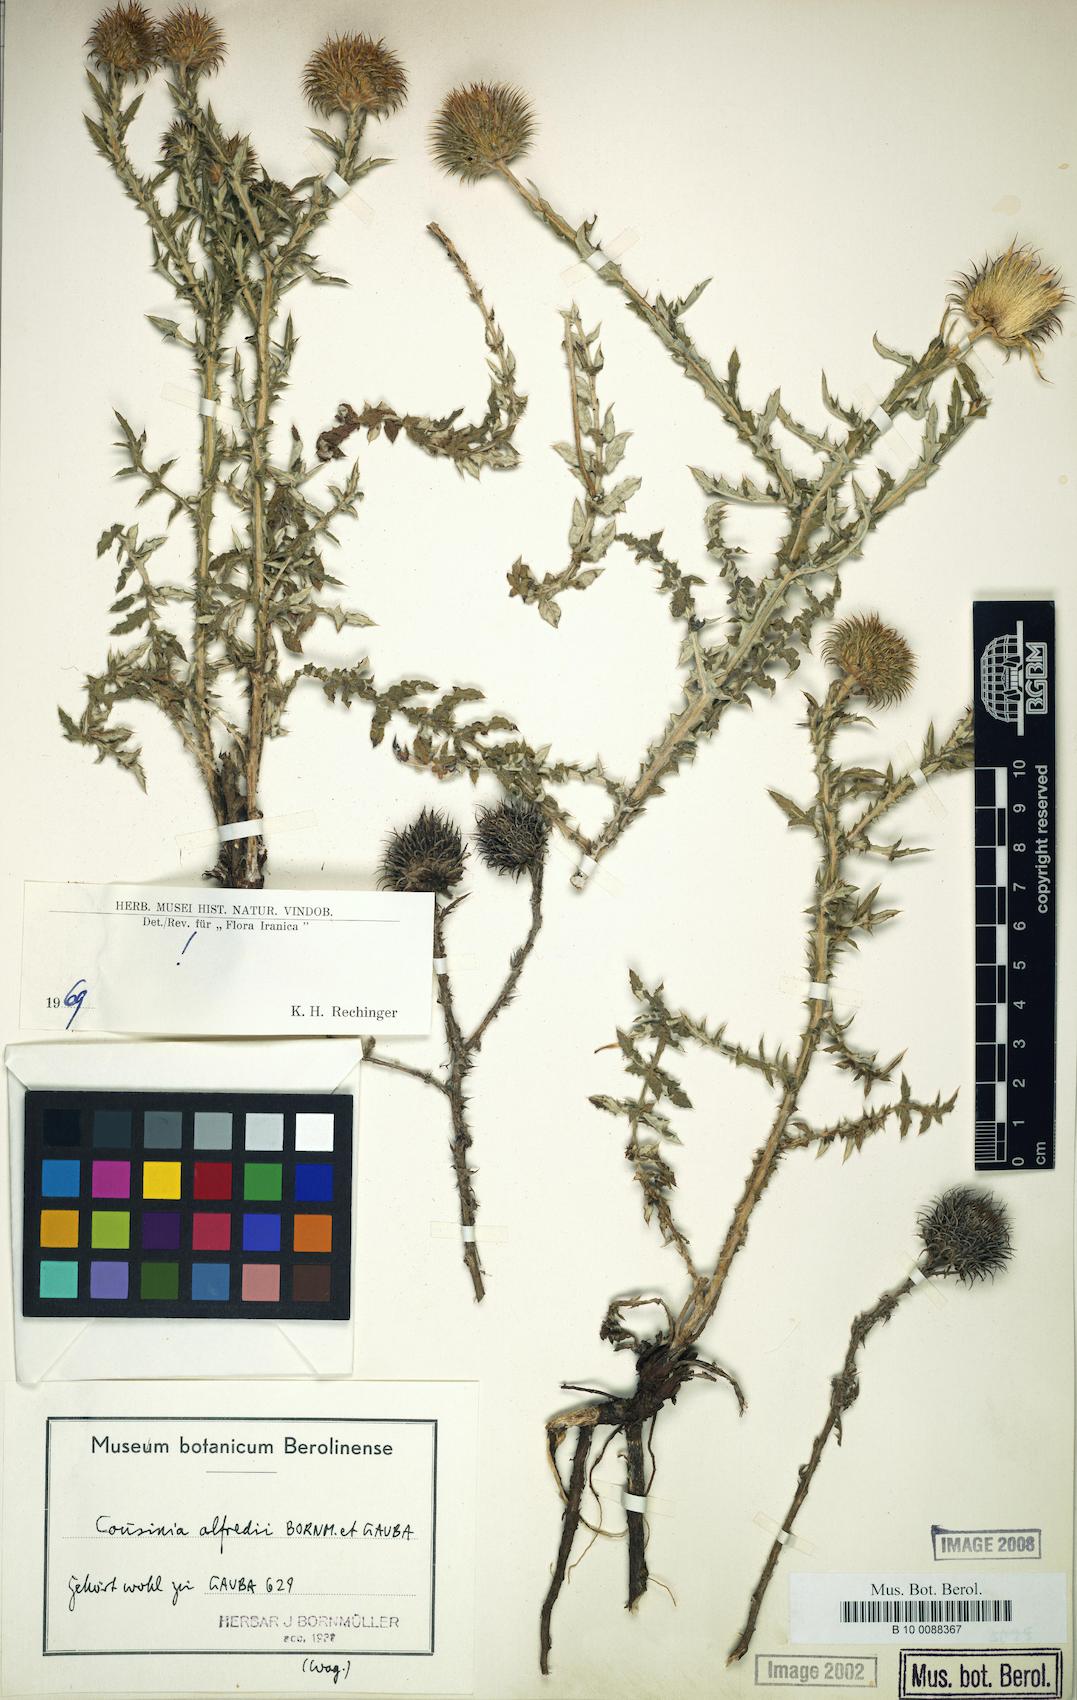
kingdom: Plantae
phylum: Tracheophyta
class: Magnoliopsida
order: Asterales
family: Asteraceae
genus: Cousinia
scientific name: Cousinia alfredii
